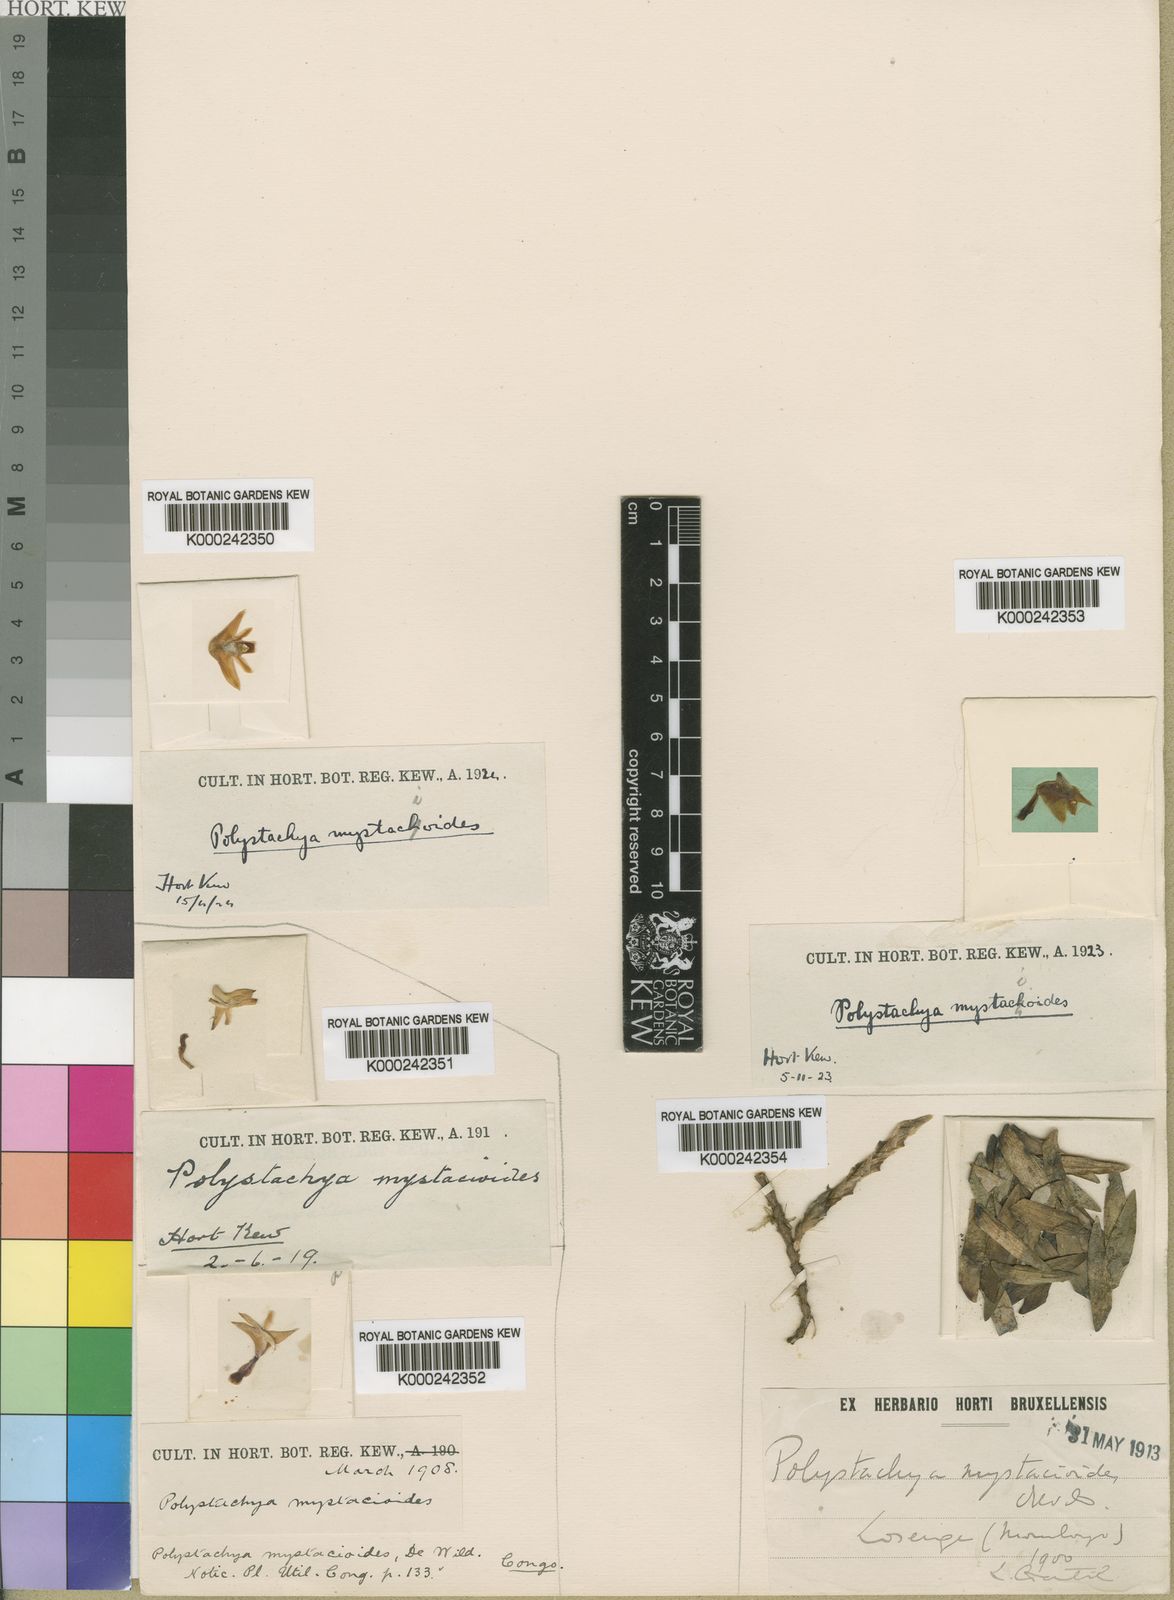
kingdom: Plantae
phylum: Tracheophyta
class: Liliopsida
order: Asparagales
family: Orchidaceae
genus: Polystachya
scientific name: Polystachya mystacioides
